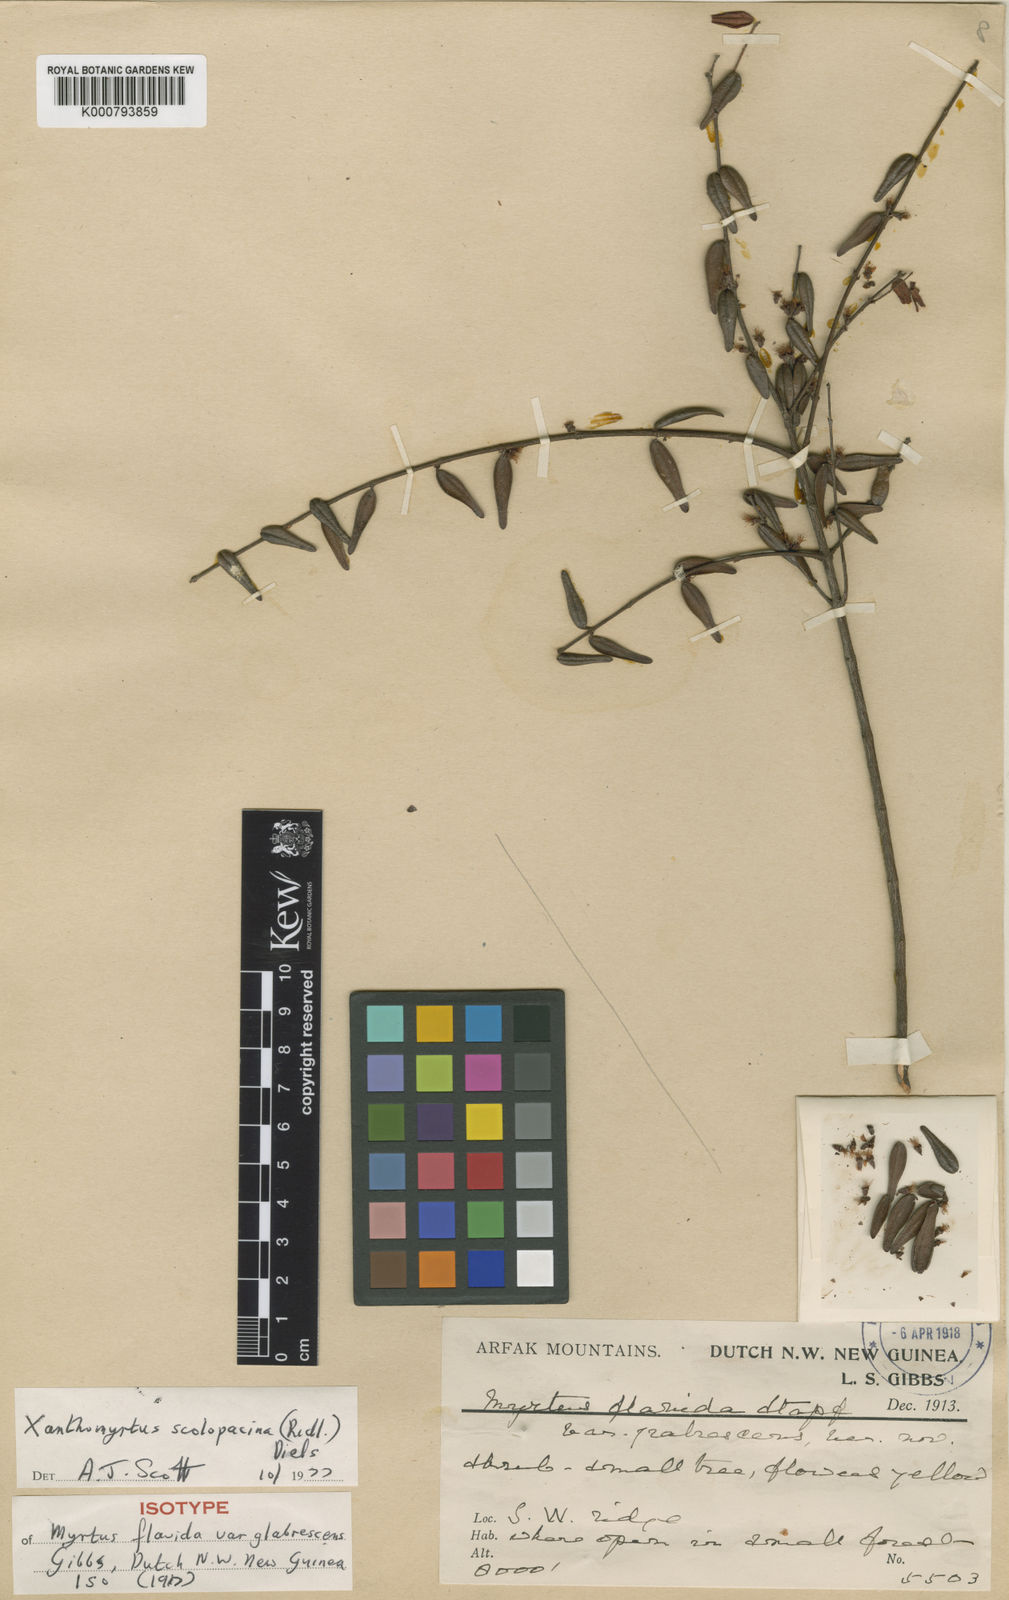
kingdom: Plantae
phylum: Tracheophyta
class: Magnoliopsida
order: Myrtales
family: Myrtaceae
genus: Xanthomyrtus
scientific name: Xanthomyrtus scolopacina
